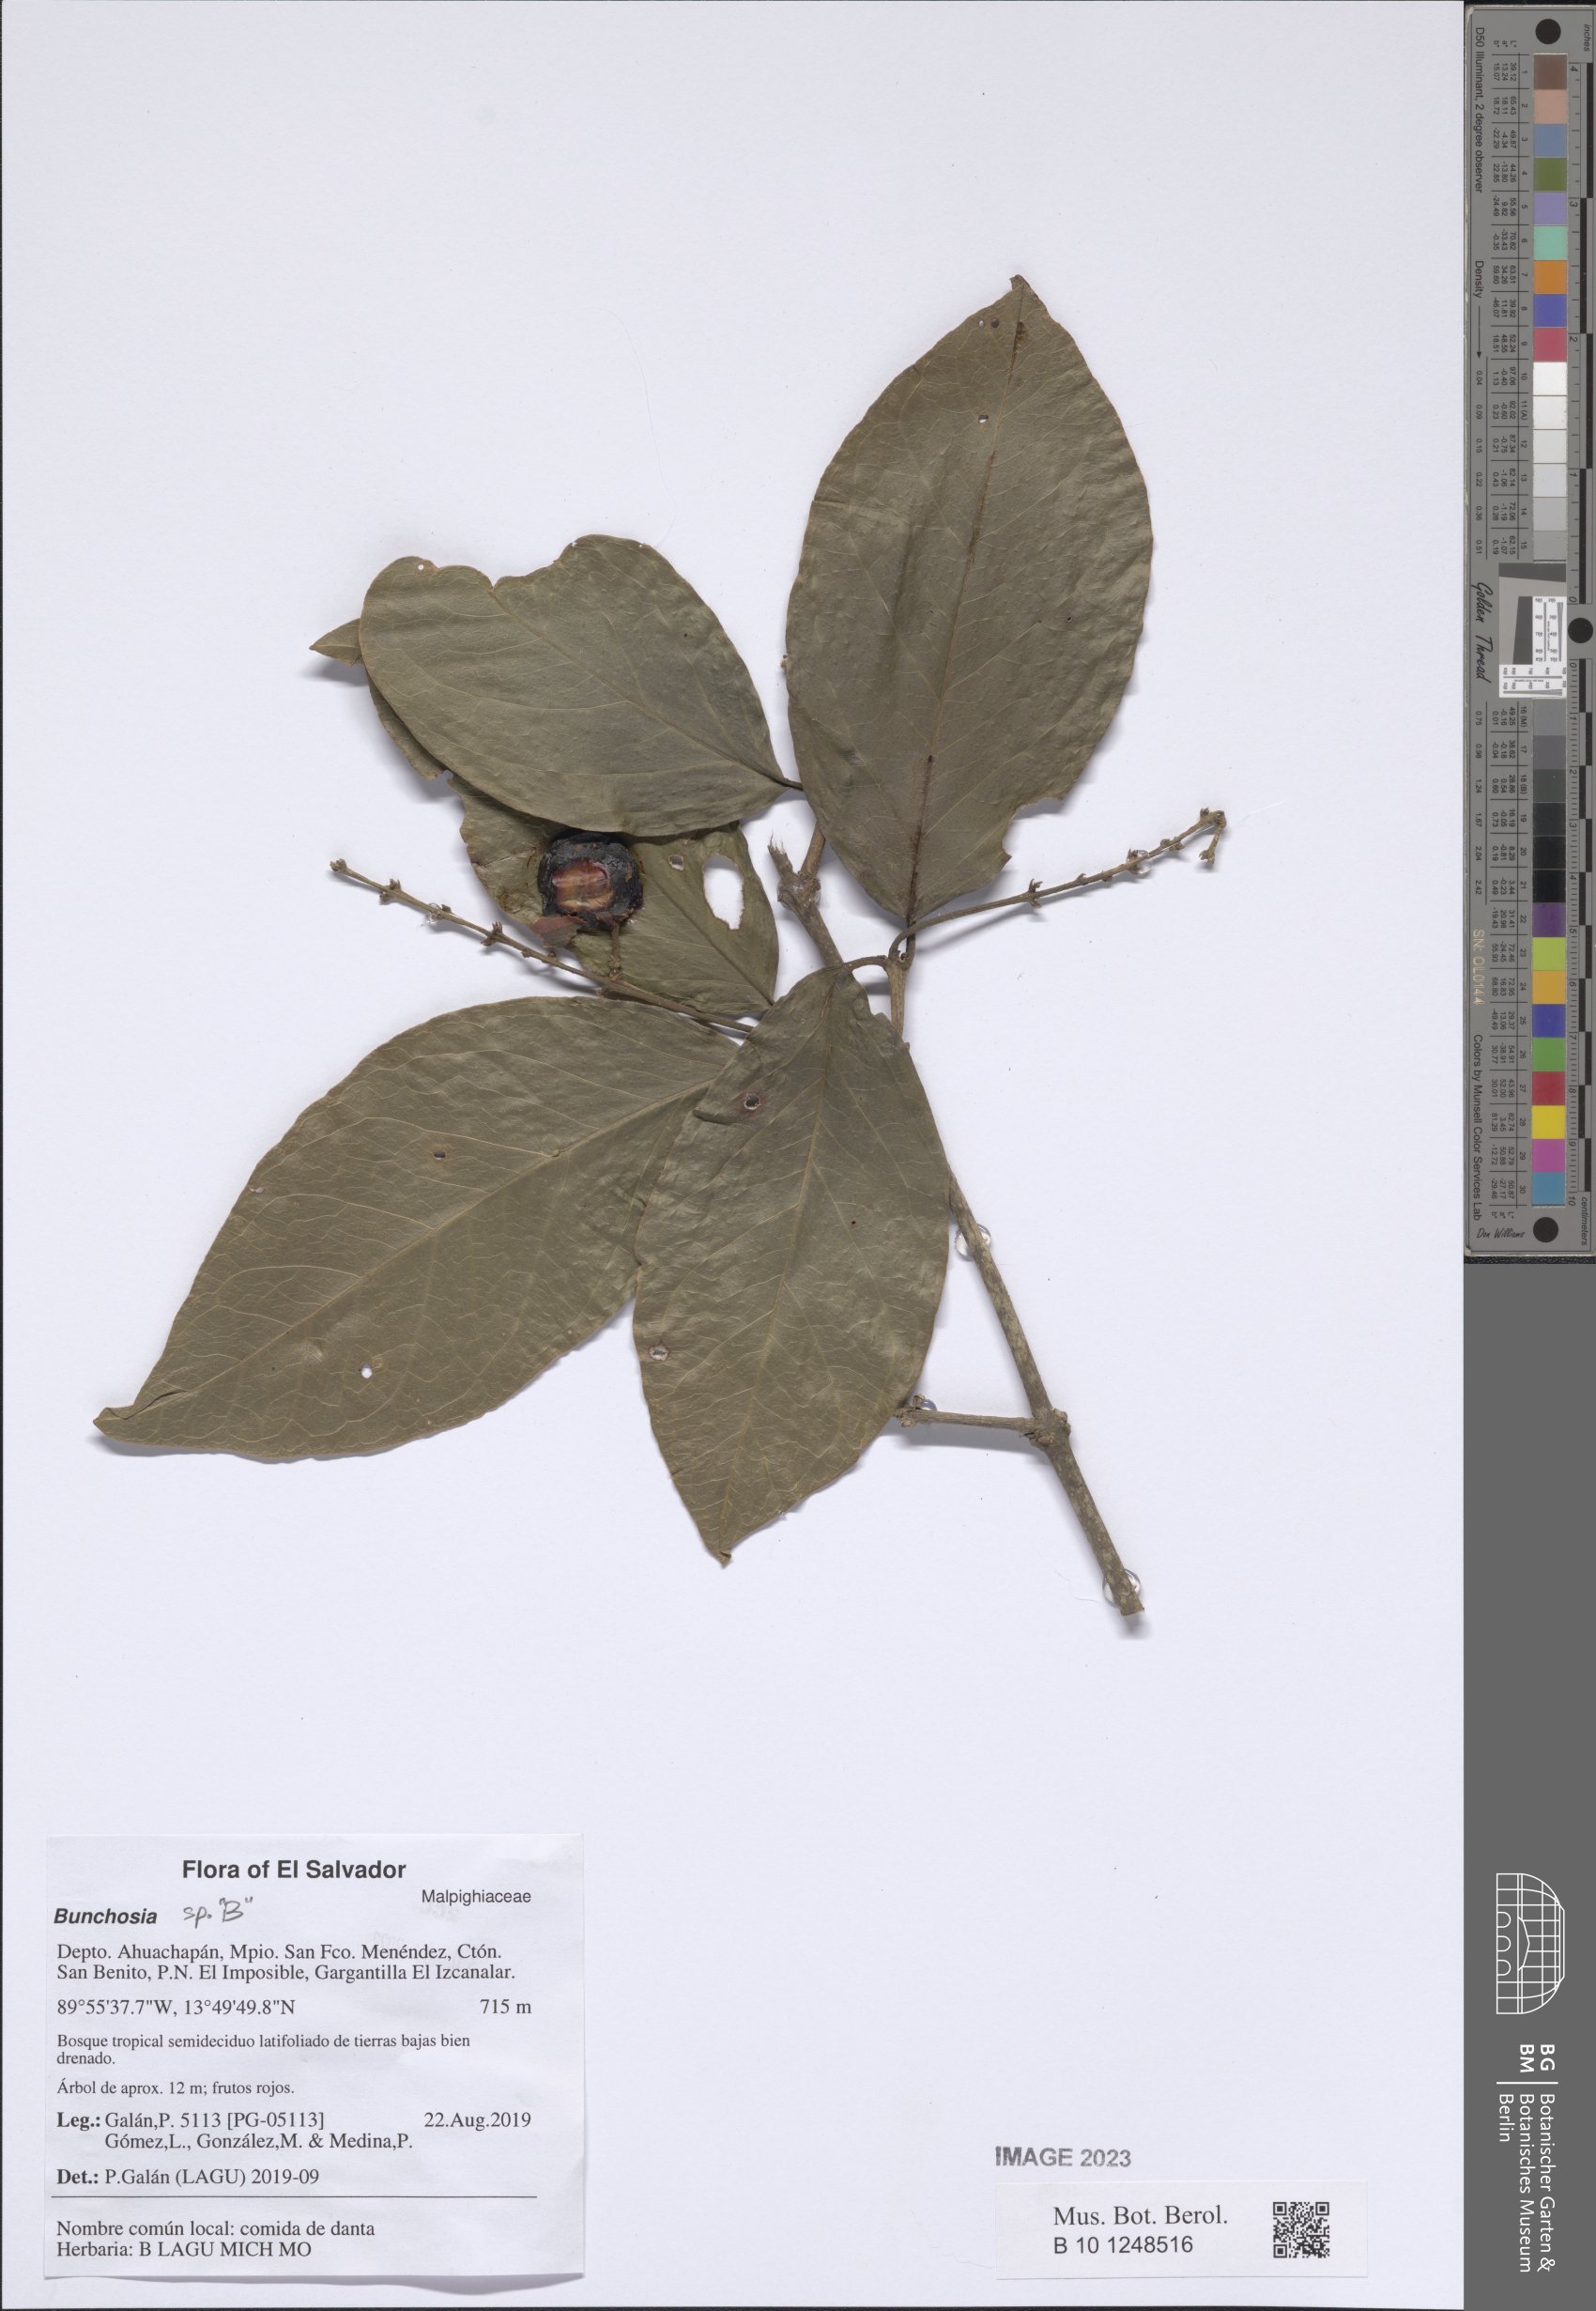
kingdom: Plantae
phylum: Tracheophyta
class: Magnoliopsida
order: Malpighiales
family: Malpighiaceae
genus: Bunchosia
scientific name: Bunchosia
